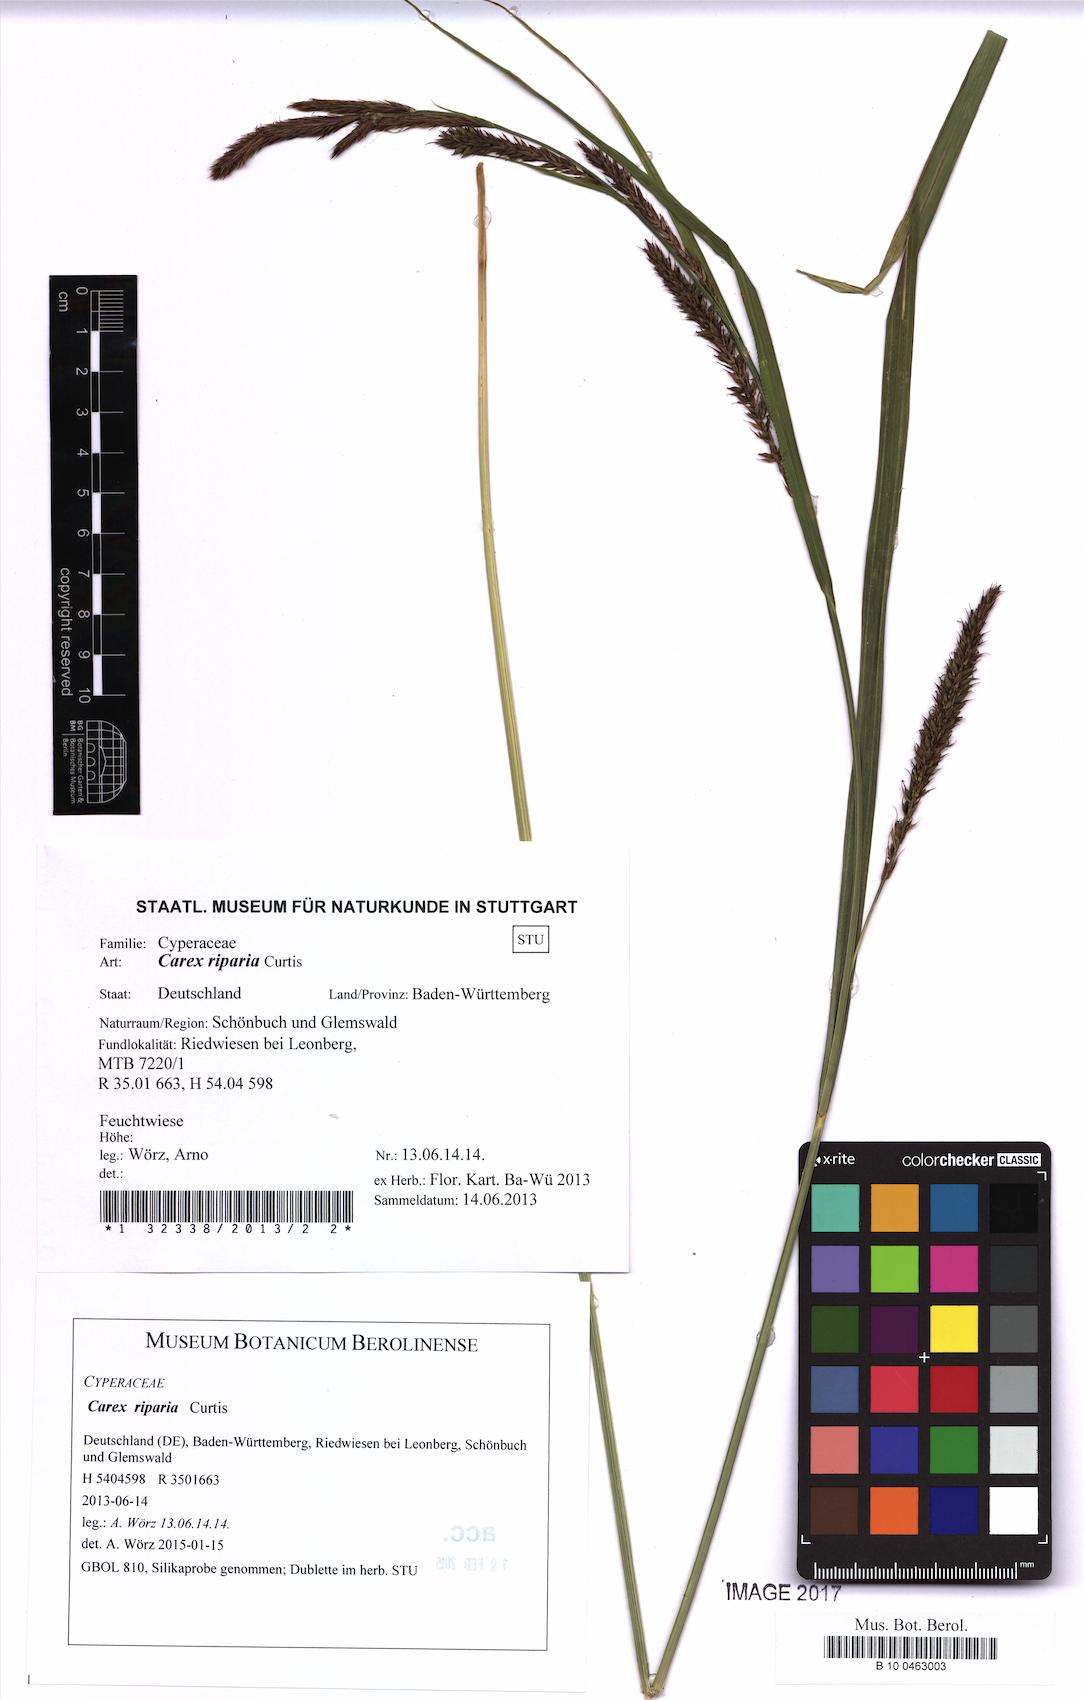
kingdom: Plantae
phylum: Tracheophyta
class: Liliopsida
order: Poales
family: Cyperaceae
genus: Carex
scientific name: Carex riparia
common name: Greater pond-sedge
